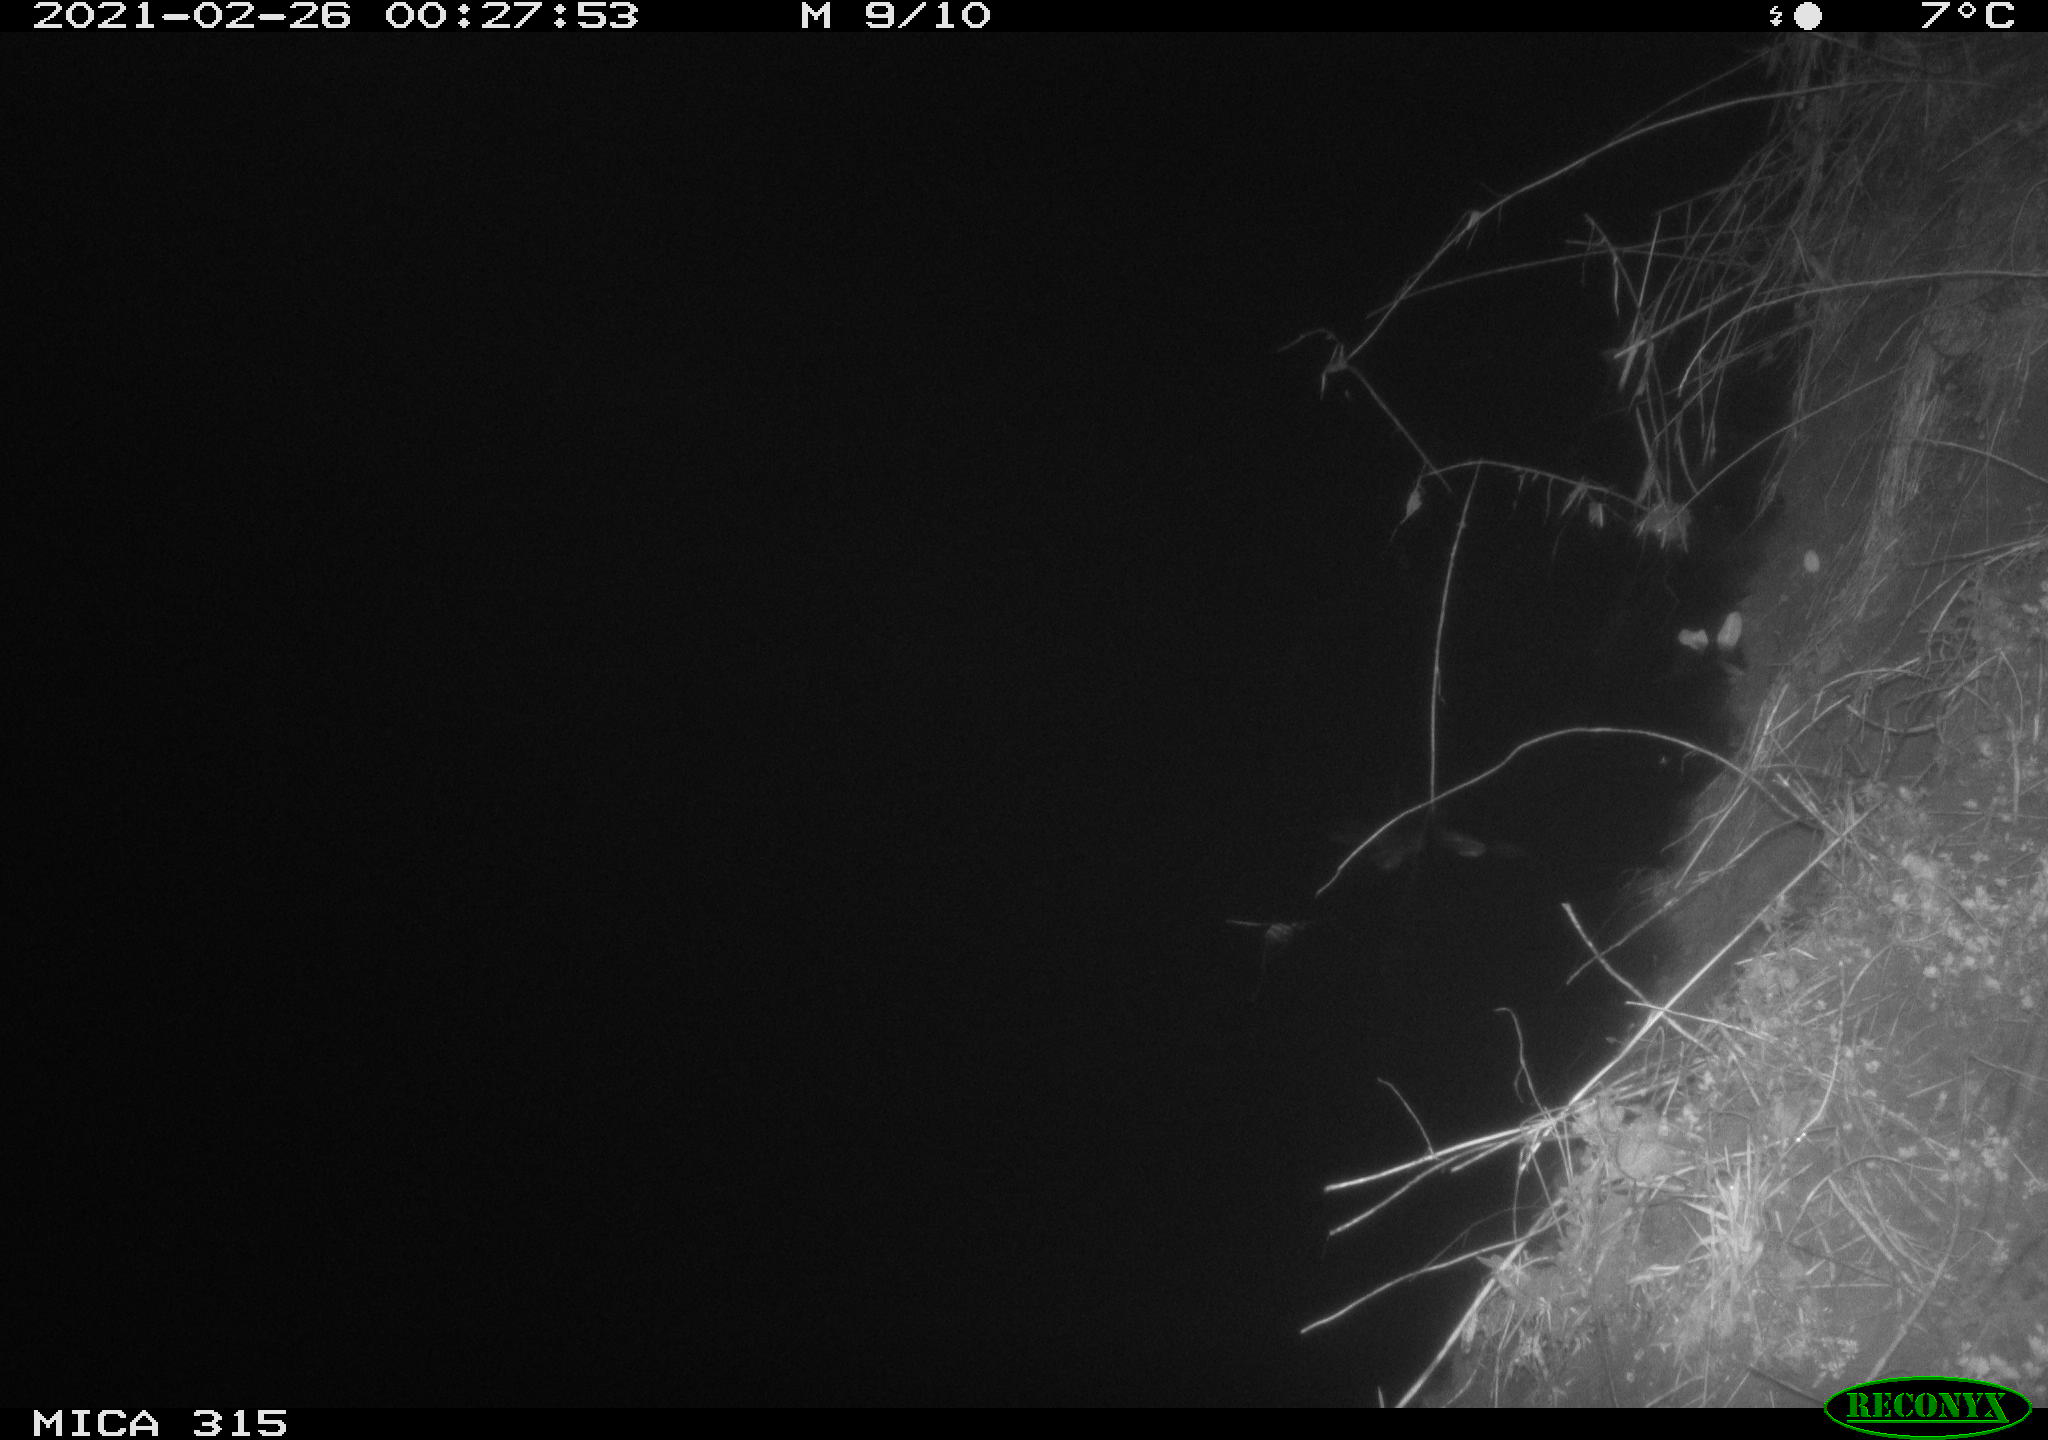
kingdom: Animalia
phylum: Chordata
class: Mammalia
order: Rodentia
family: Muridae
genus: Rattus
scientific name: Rattus norvegicus
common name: Brown rat
